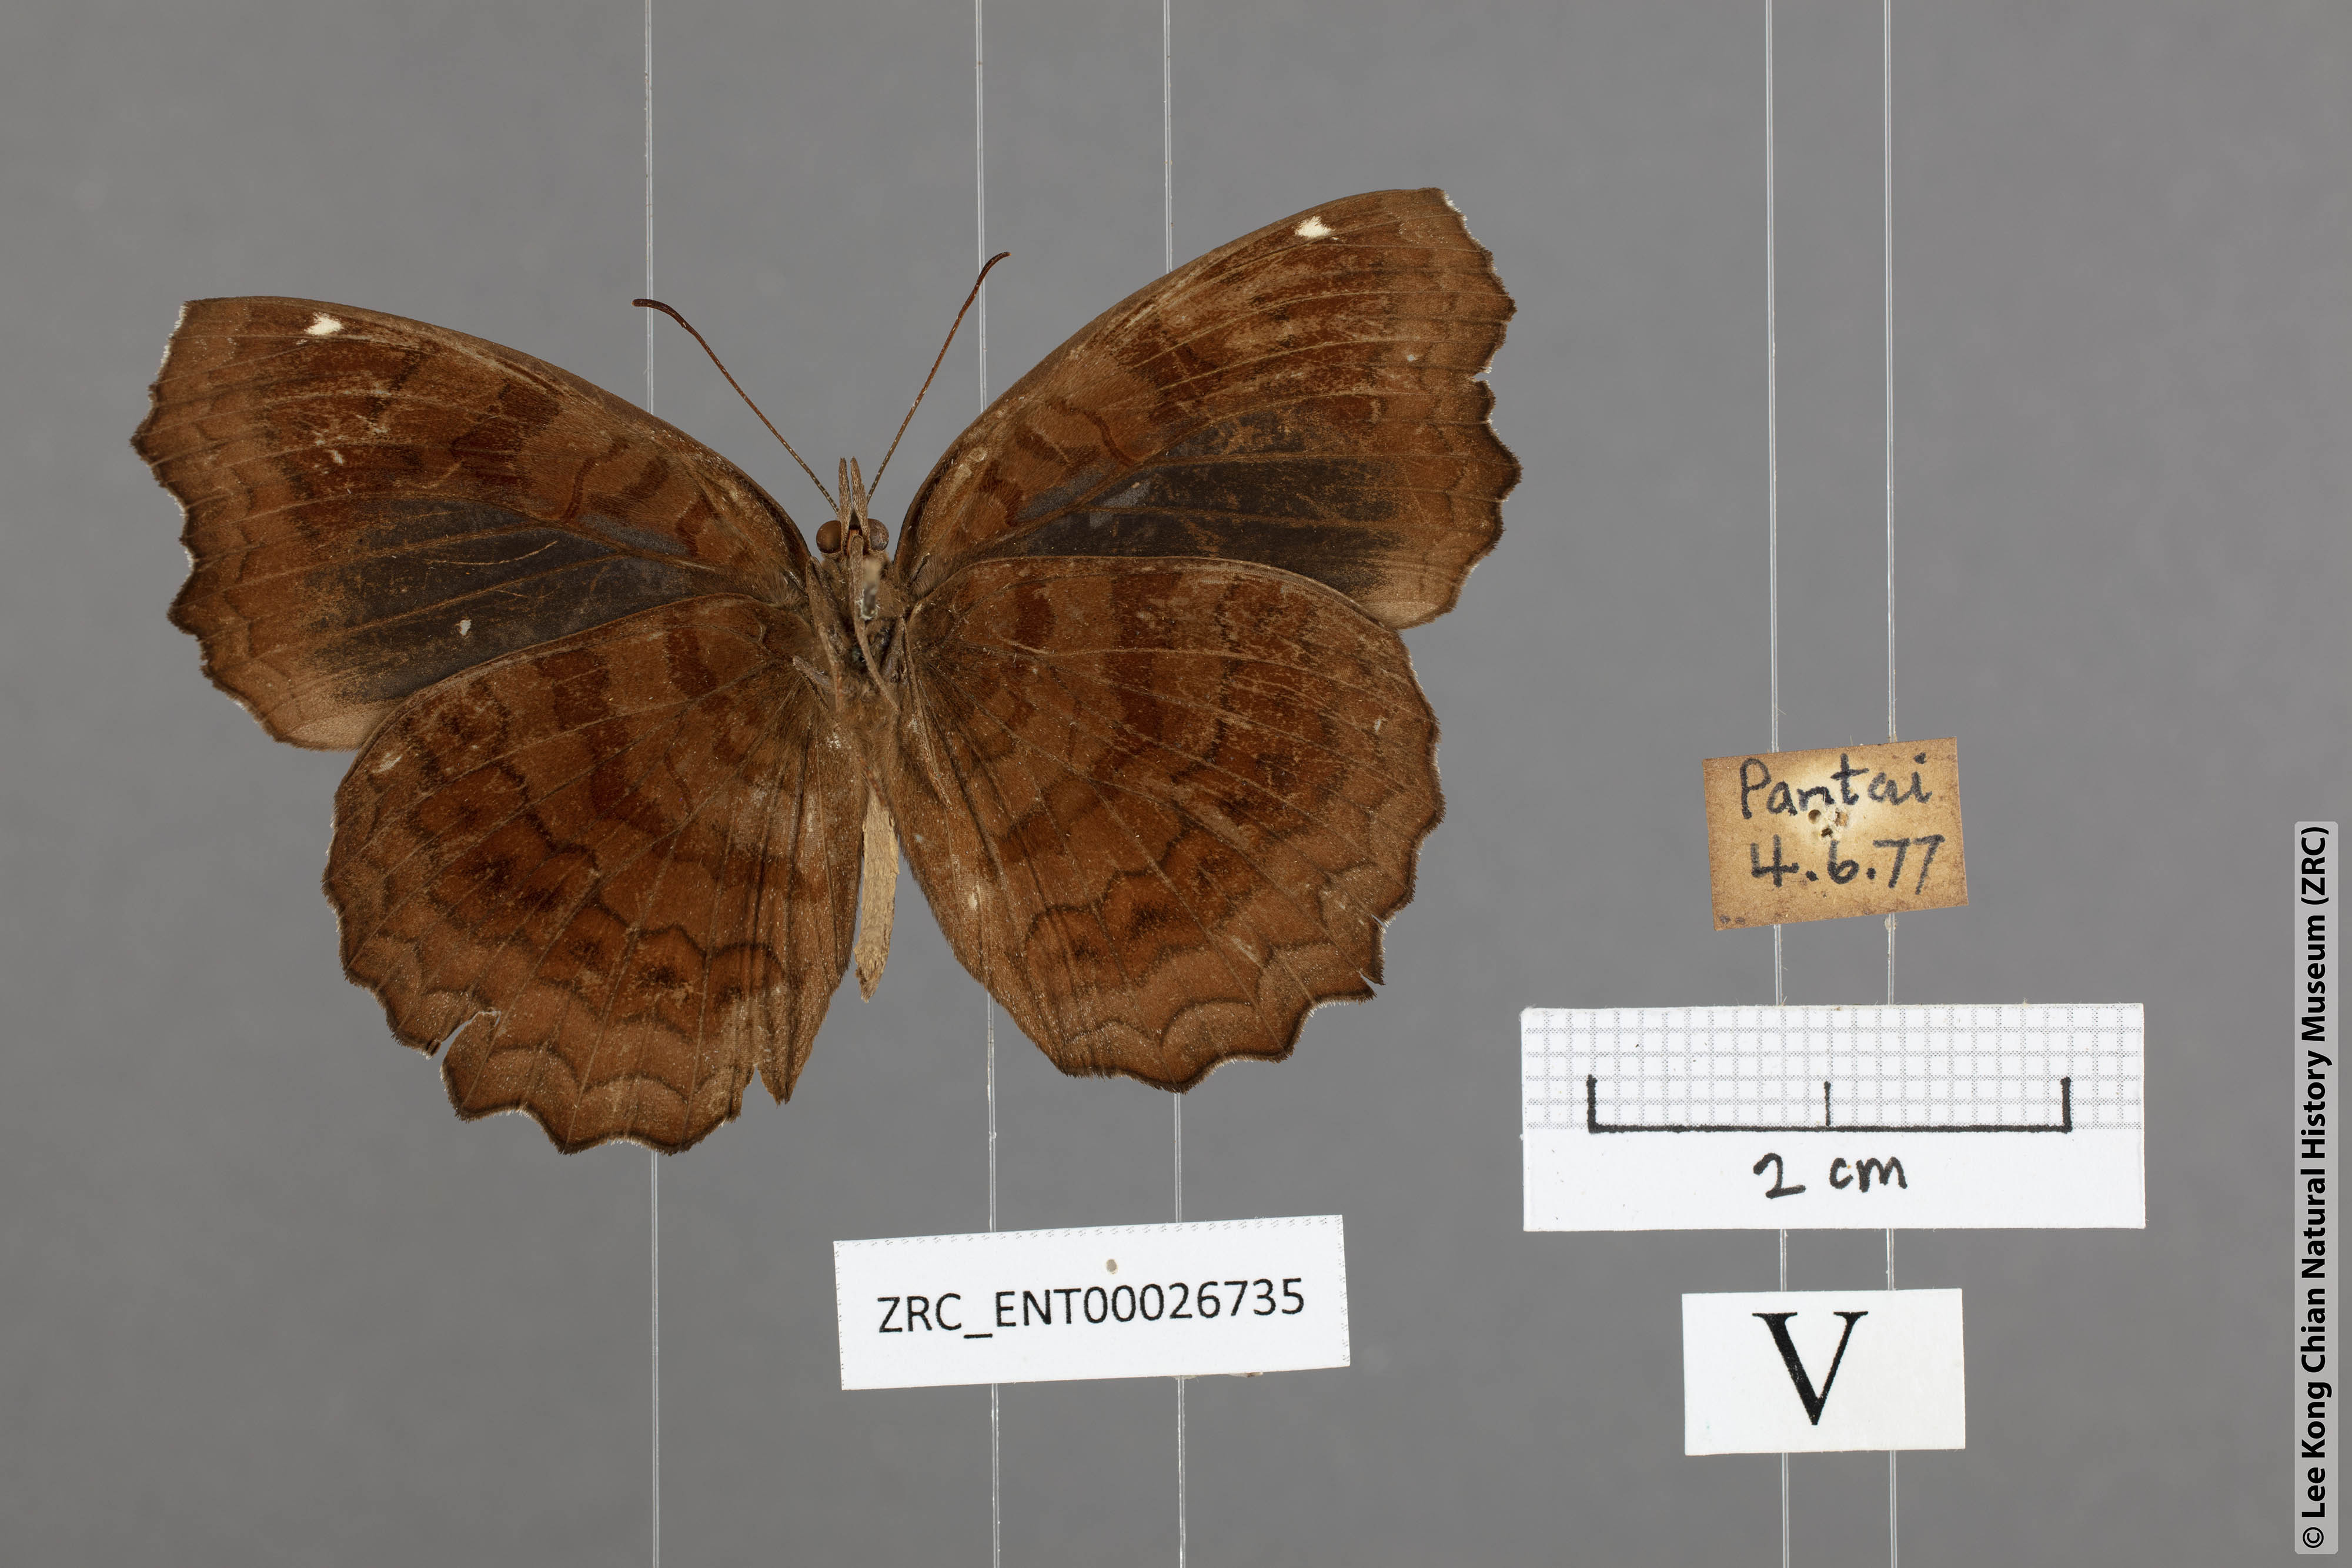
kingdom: Animalia
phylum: Arthropoda
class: Insecta
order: Lepidoptera
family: Nymphalidae
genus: Ariadne
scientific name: Ariadne ariadne
